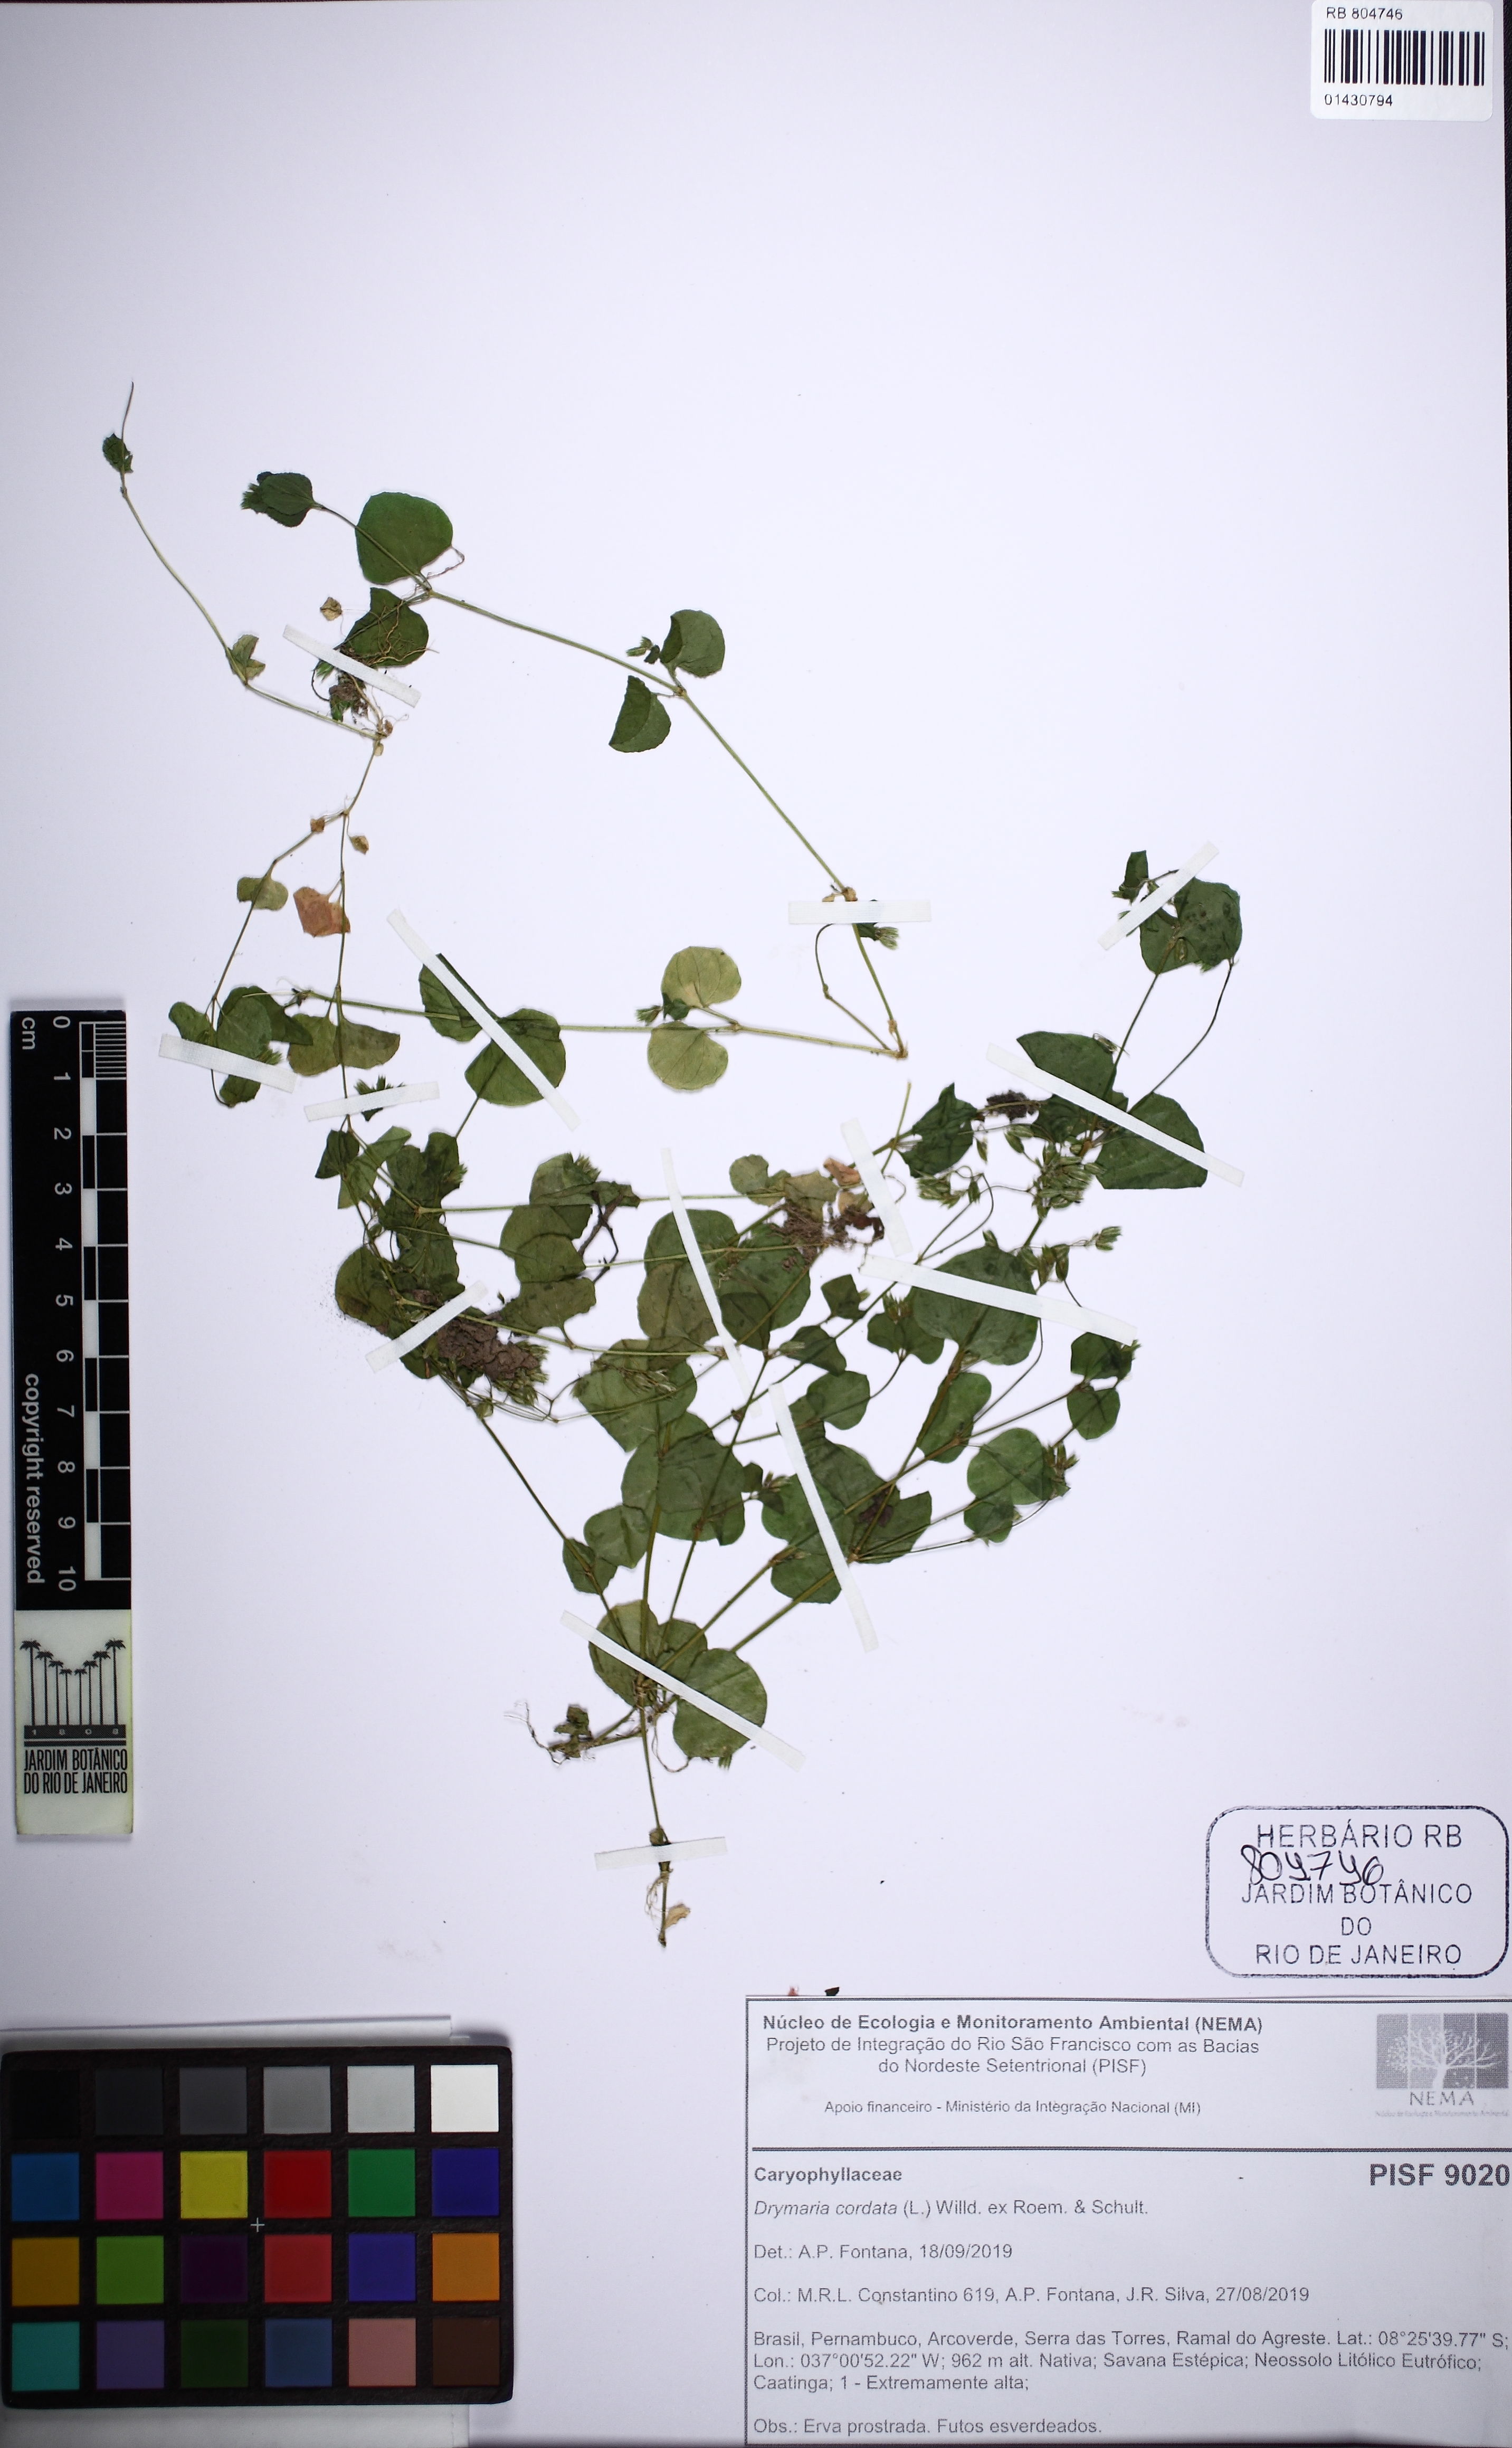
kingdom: Plantae
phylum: Tracheophyta
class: Magnoliopsida
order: Caryophyllales
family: Caryophyllaceae
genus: Drymaria
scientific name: Drymaria cordata
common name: Whitesnow
